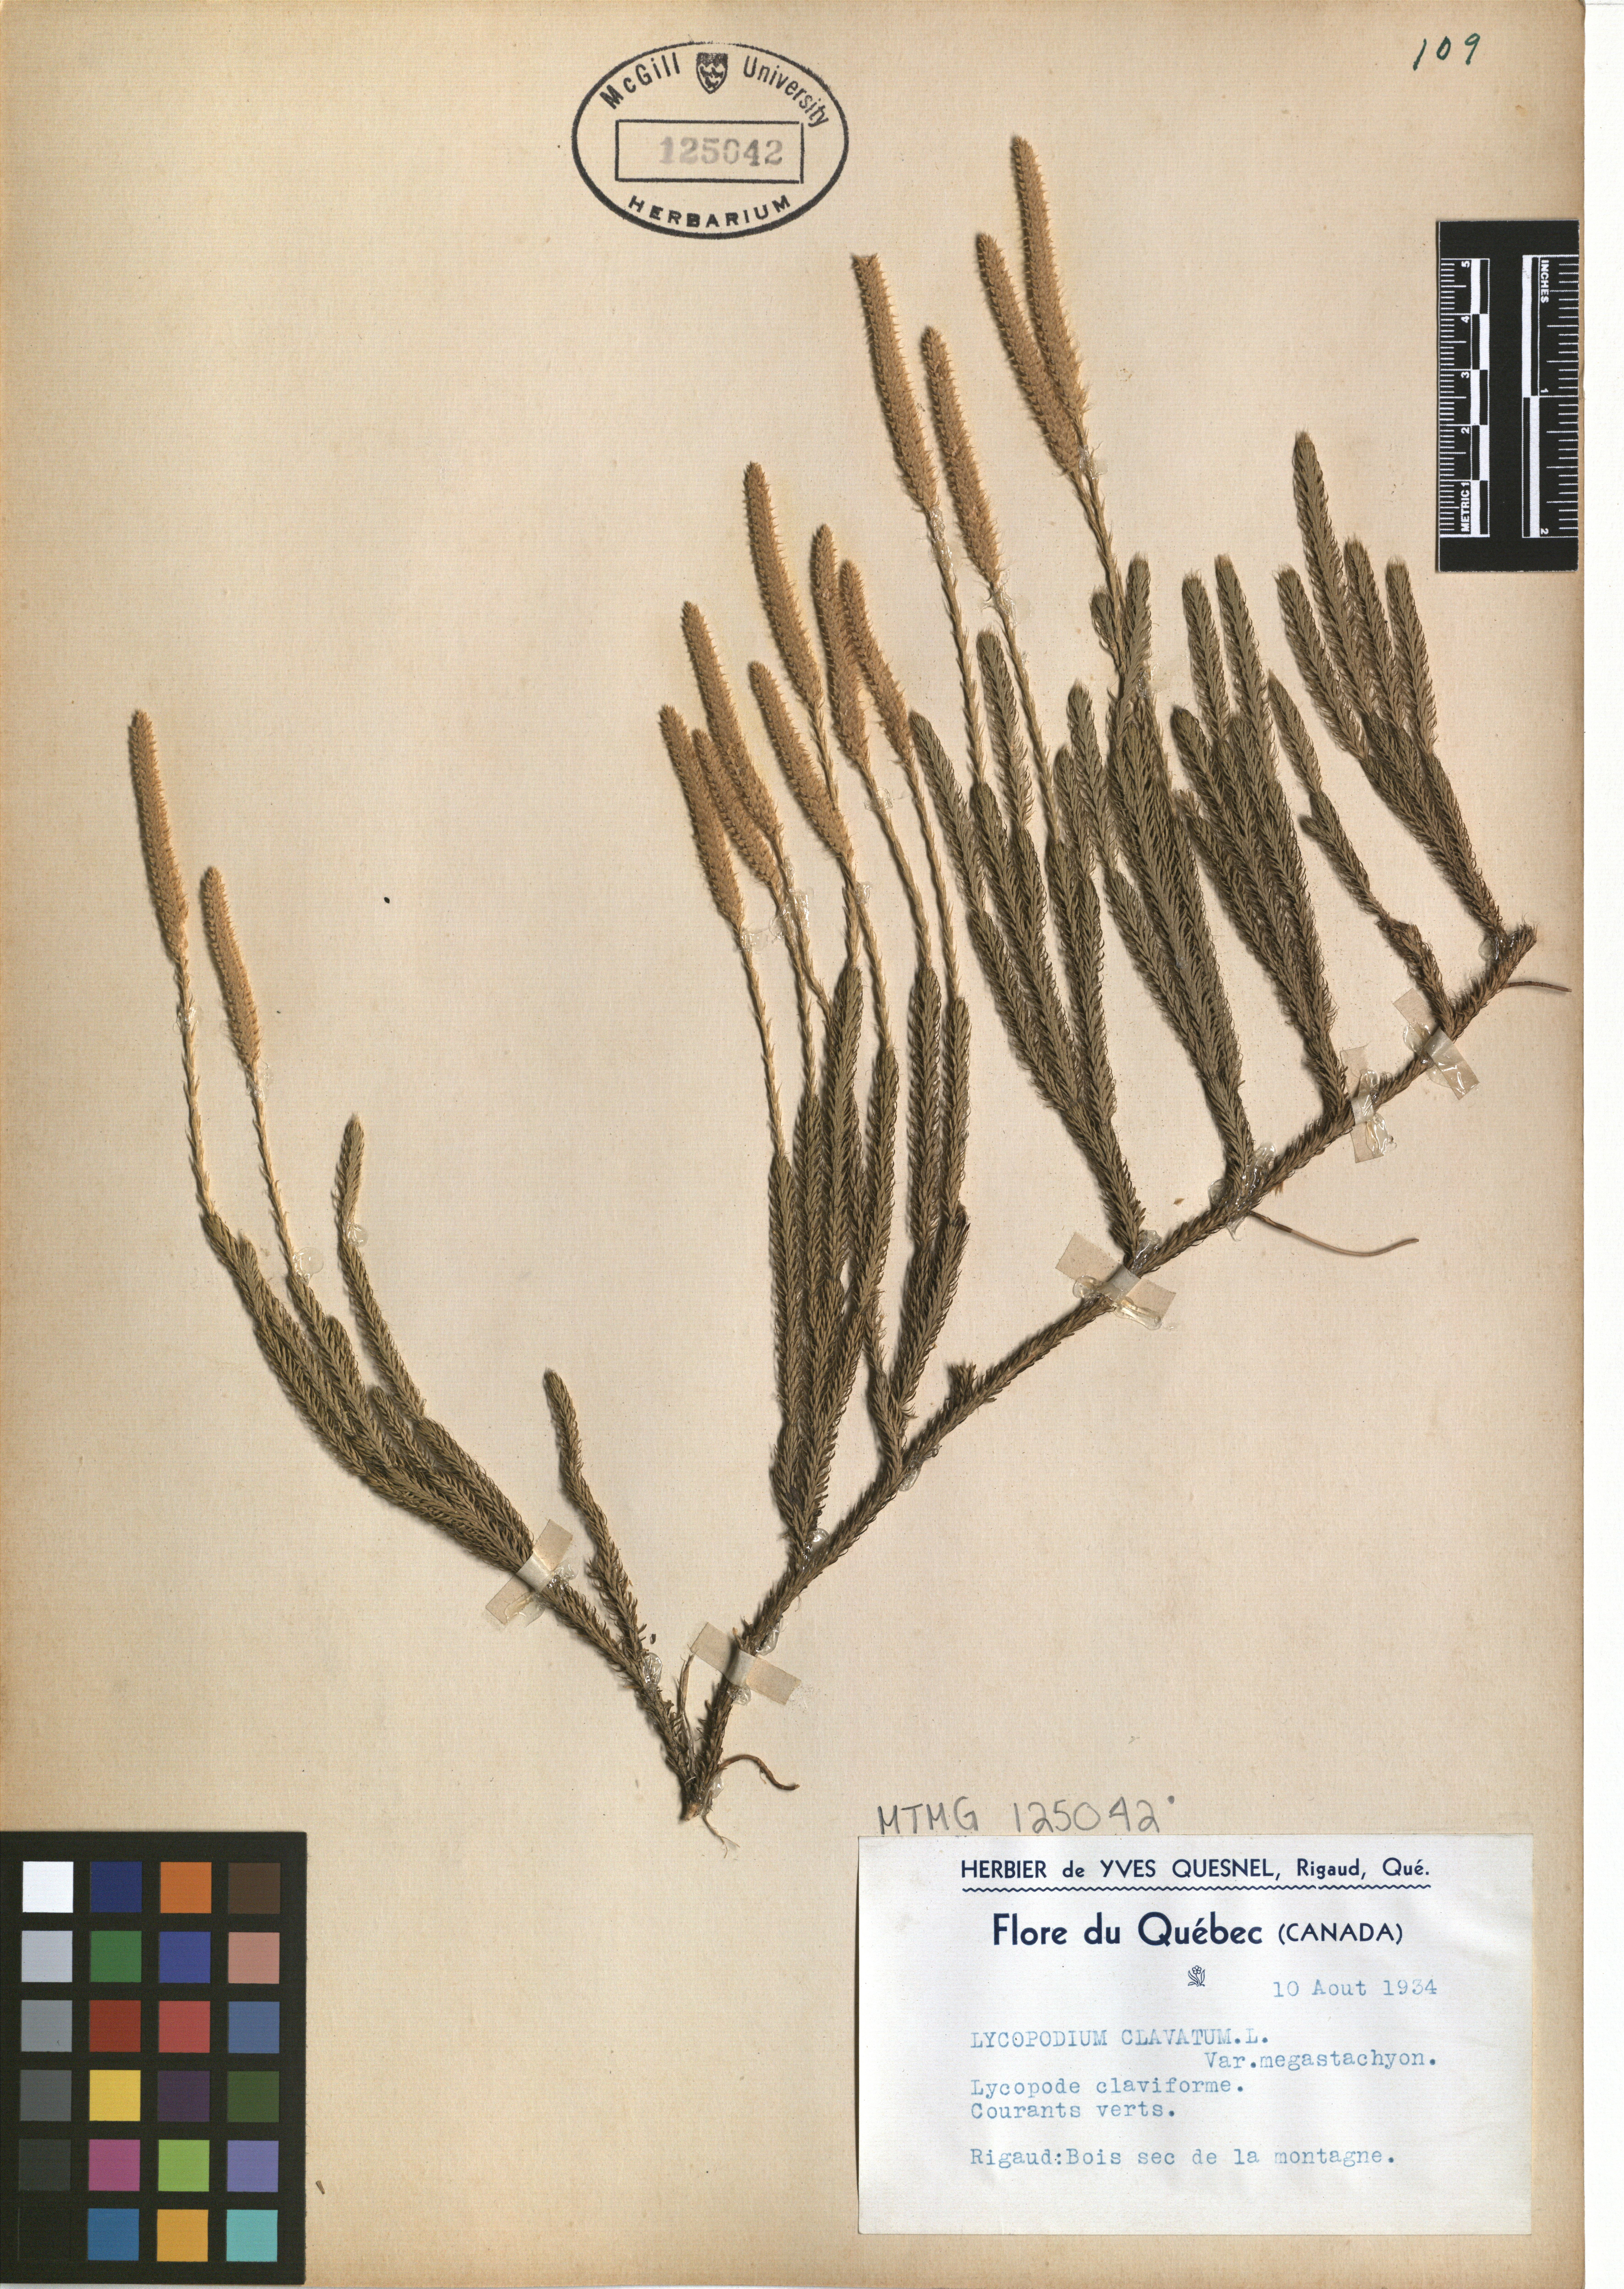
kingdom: Plantae
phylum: Tracheophyta
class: Lycopodiopsida
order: Lycopodiales
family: Lycopodiaceae
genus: Lycopodium
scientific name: Lycopodium clavatum
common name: Stag's-horn clubmoss
